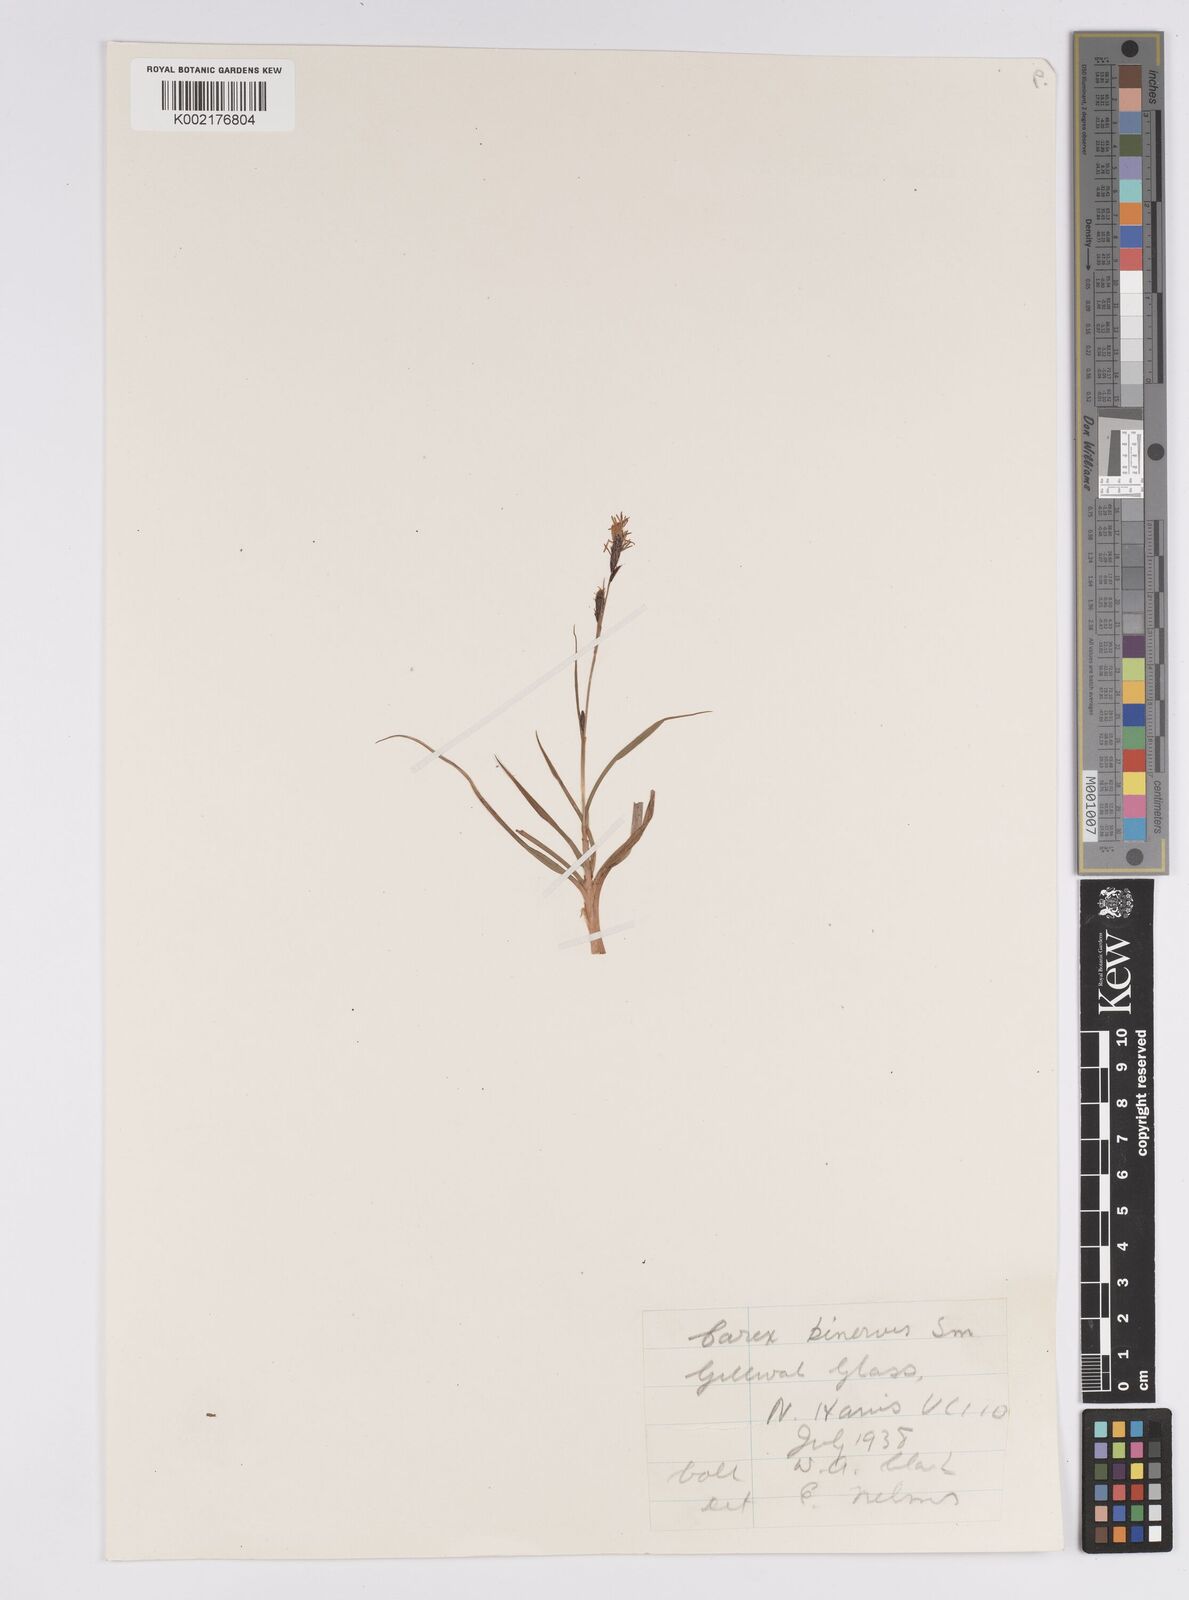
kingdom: Plantae
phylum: Tracheophyta
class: Liliopsida
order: Poales
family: Cyperaceae
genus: Carex
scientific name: Carex binervis
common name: Green-ribbed sedge
